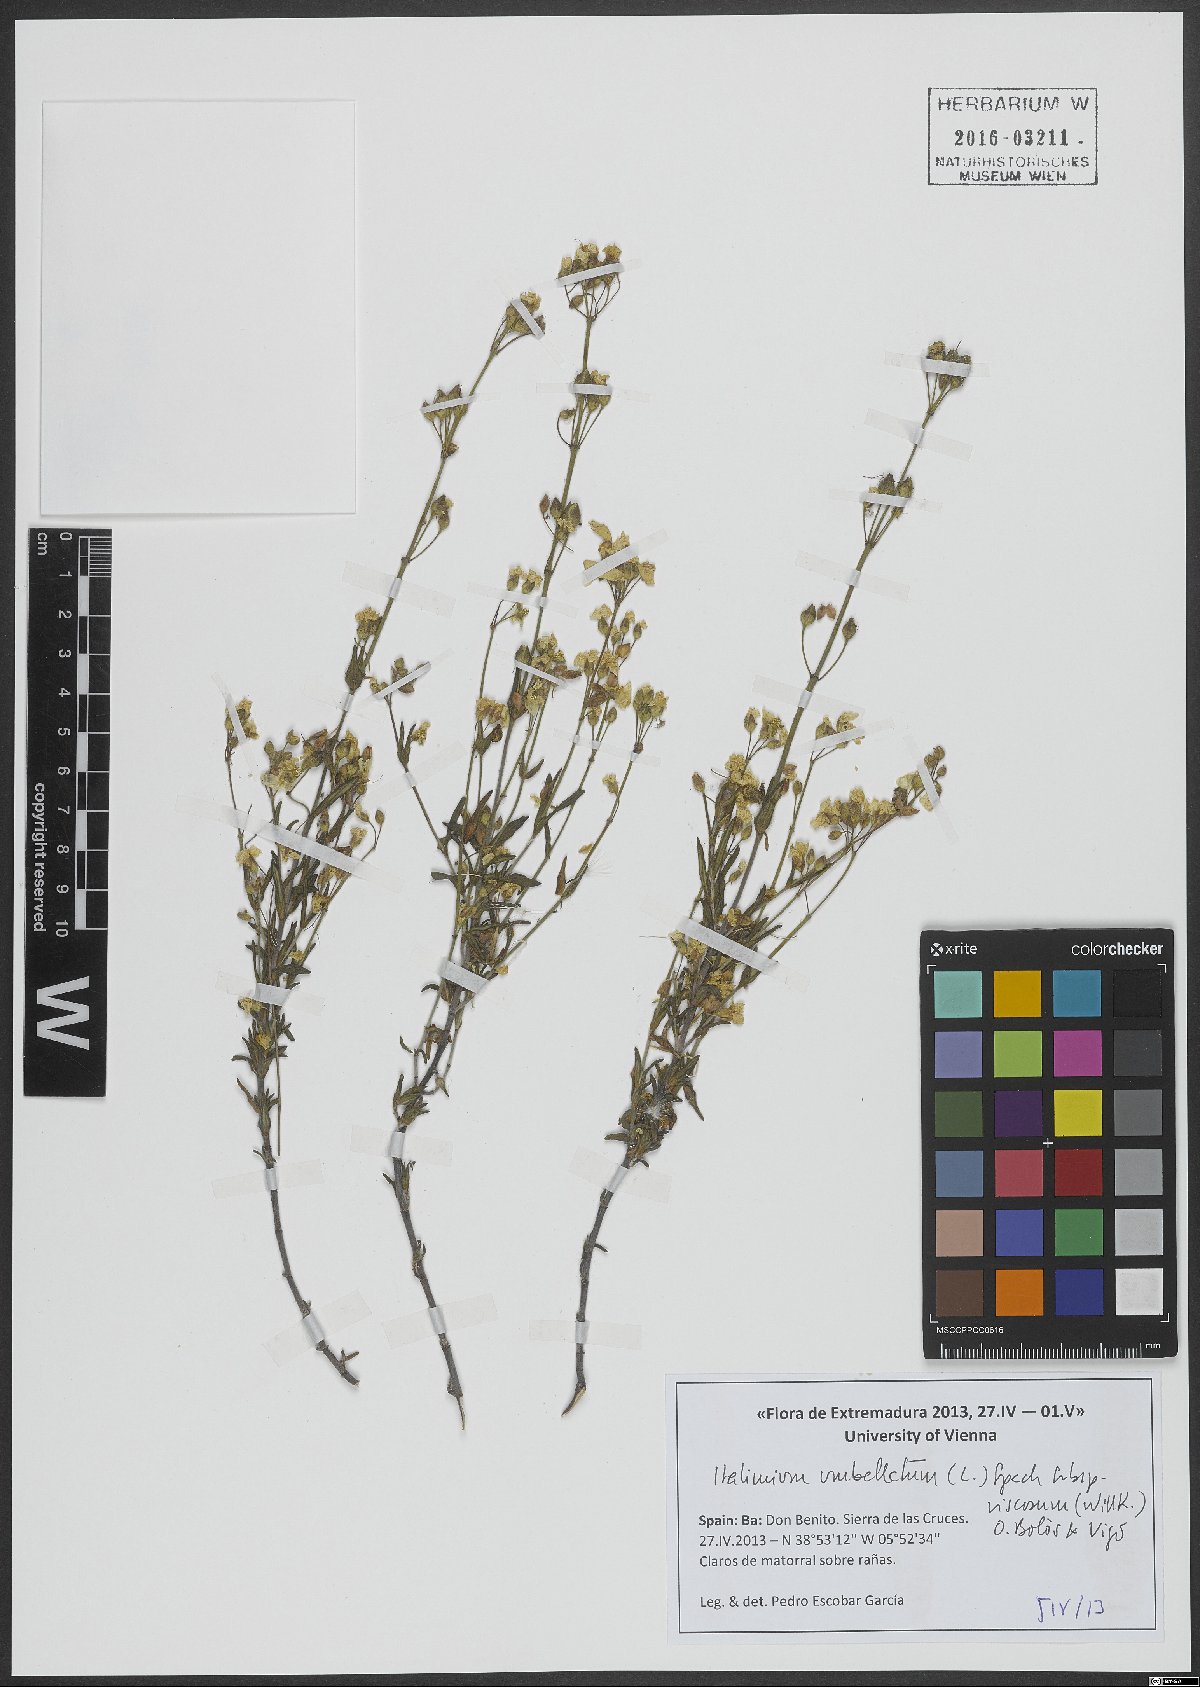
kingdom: Plantae
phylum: Tracheophyta
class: Magnoliopsida
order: Malvales
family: Cistaceae
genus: Halimium
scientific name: Halimium umbellatum
